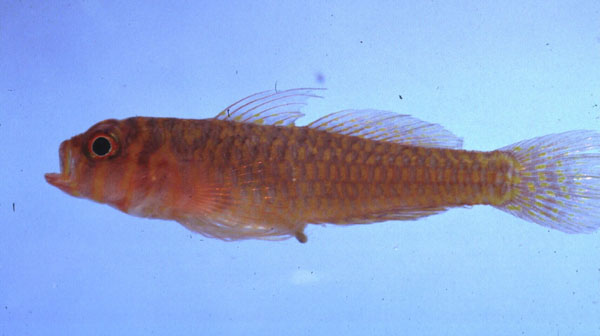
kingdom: Animalia
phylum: Chordata
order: Perciformes
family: Gobiidae
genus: Trimma
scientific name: Trimma okinawae
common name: Okinawa dwarfgoby
